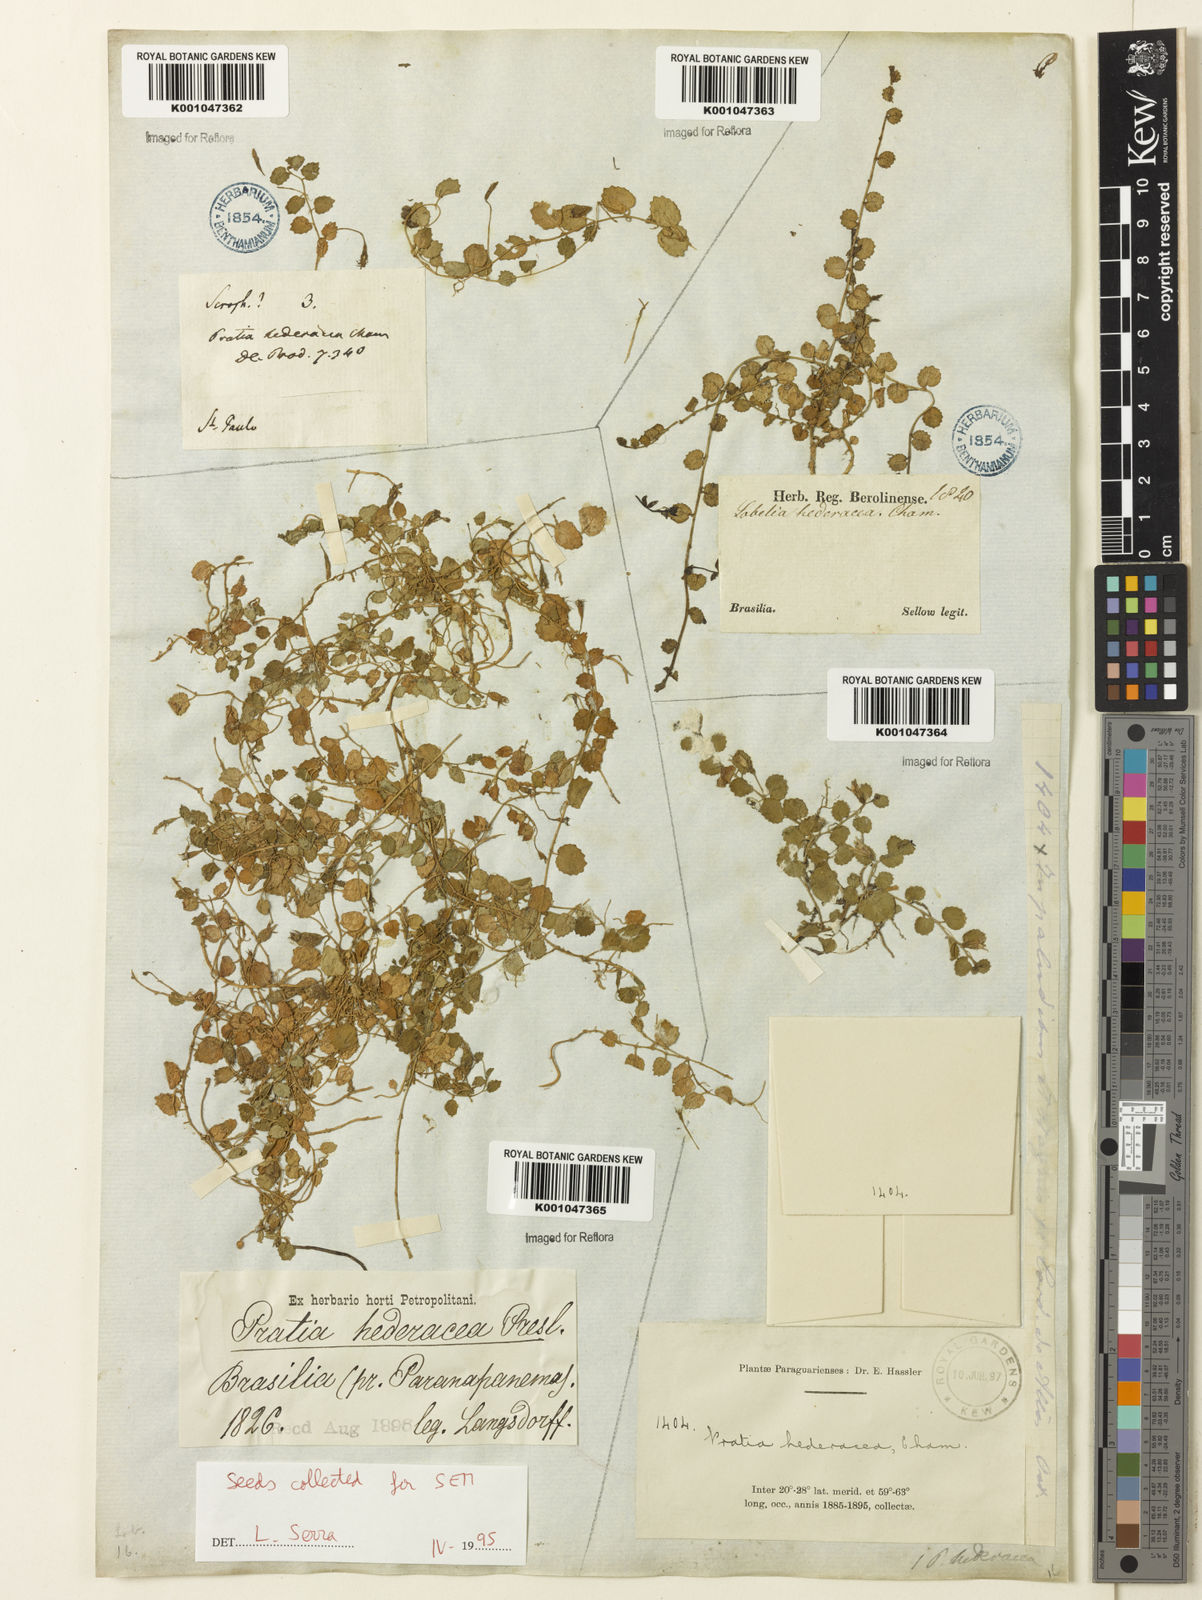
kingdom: Plantae
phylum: Tracheophyta
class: Magnoliopsida
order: Asterales
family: Campanulaceae
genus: Pratia
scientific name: Pratia
